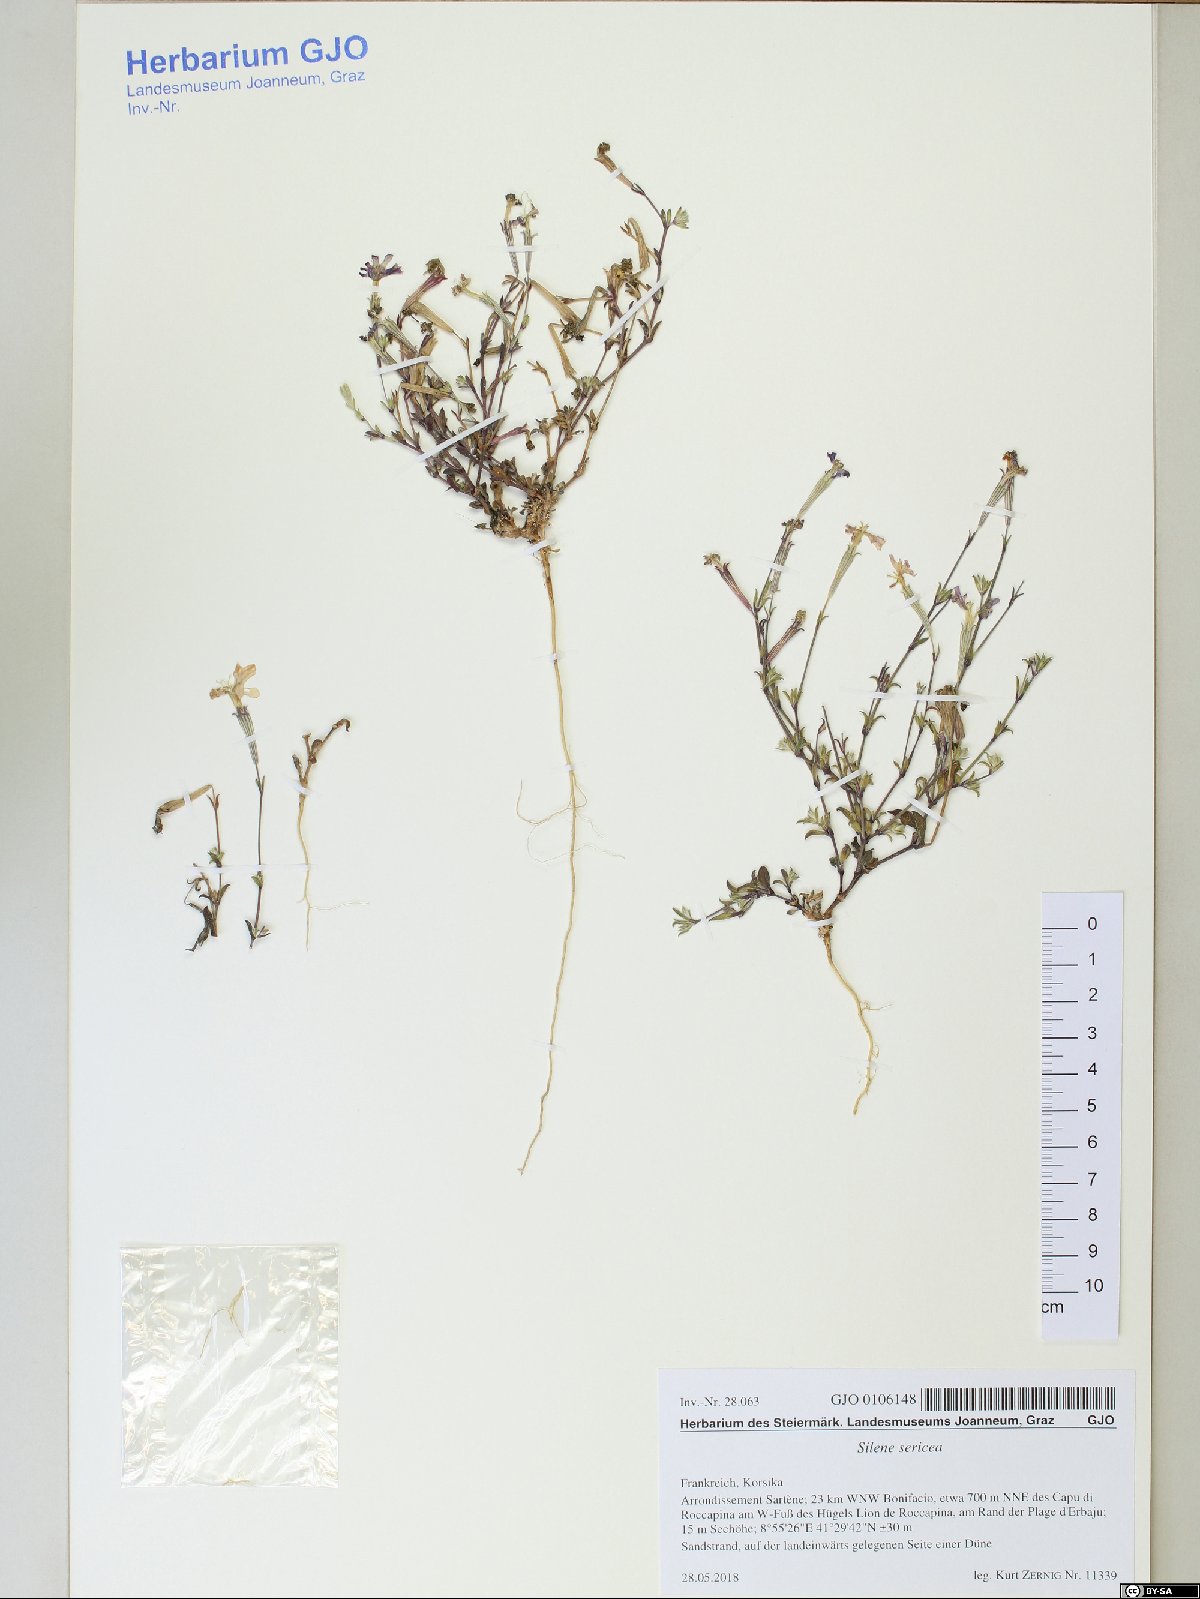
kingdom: Plantae
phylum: Tracheophyta
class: Magnoliopsida
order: Caryophyllales
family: Caryophyllaceae
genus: Silene
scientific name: Silene sericea
